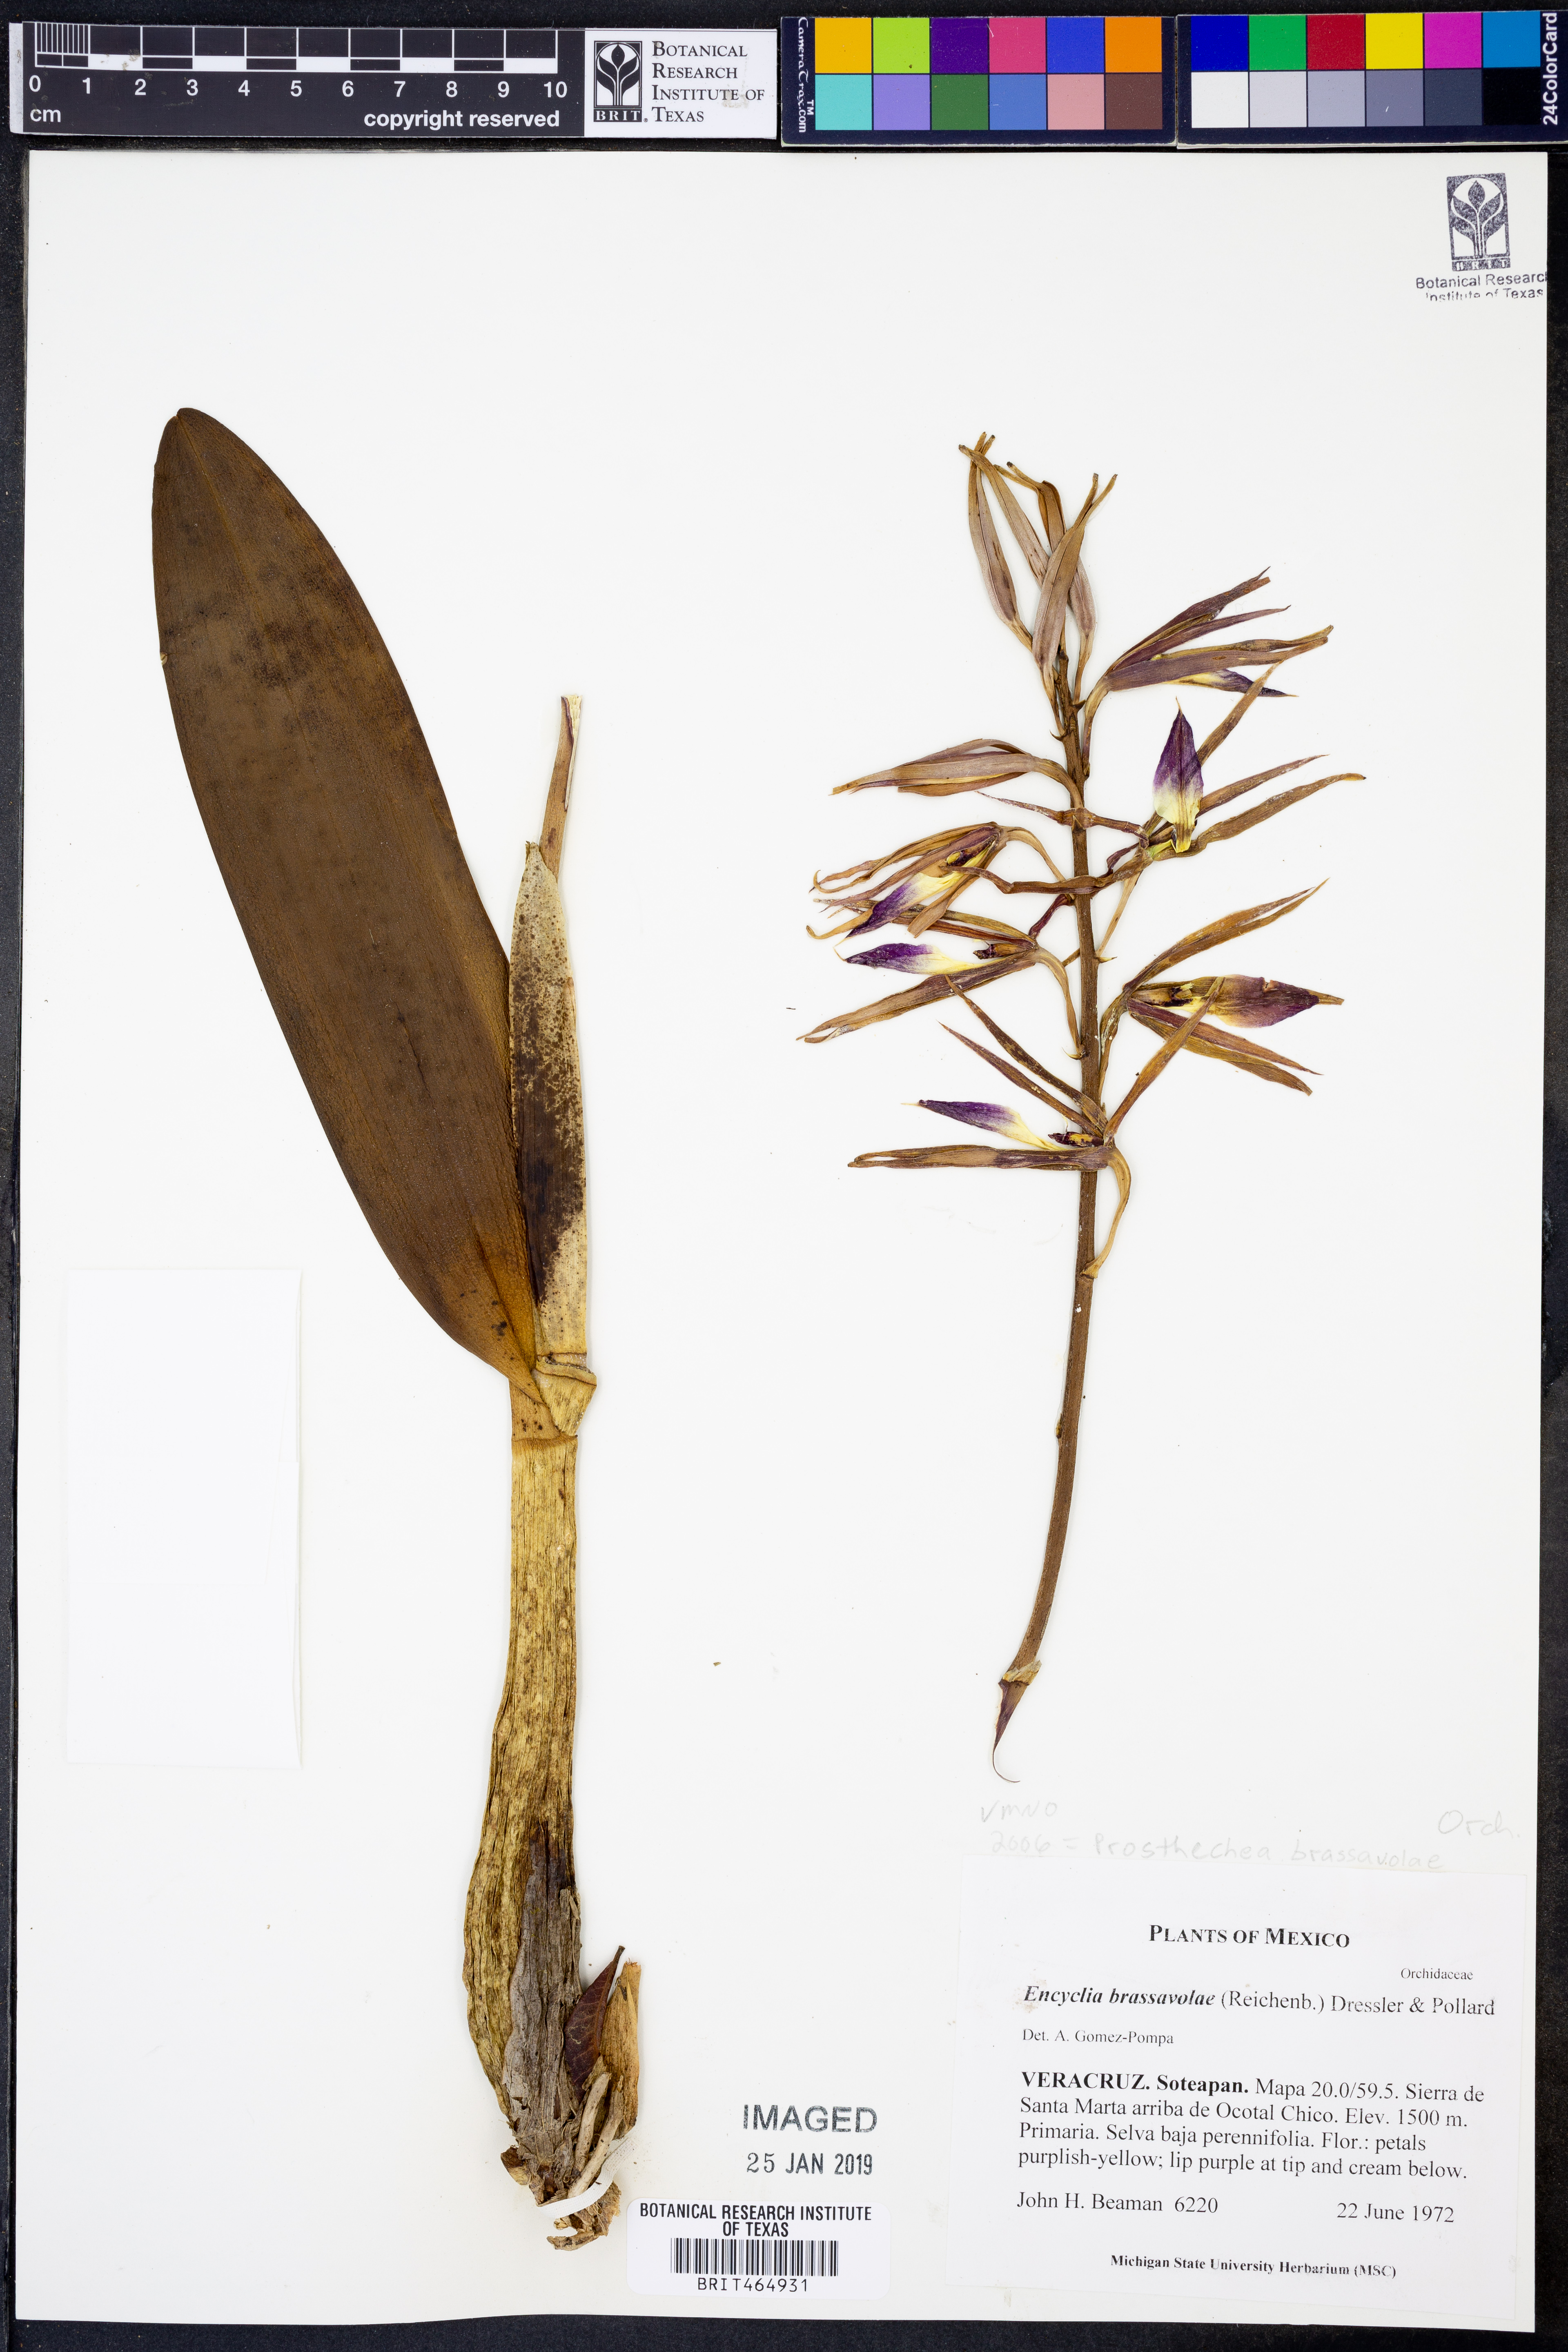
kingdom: Plantae
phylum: Tracheophyta
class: Liliopsida
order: Asparagales
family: Orchidaceae
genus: Prosthechea
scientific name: Prosthechea brassavolae
